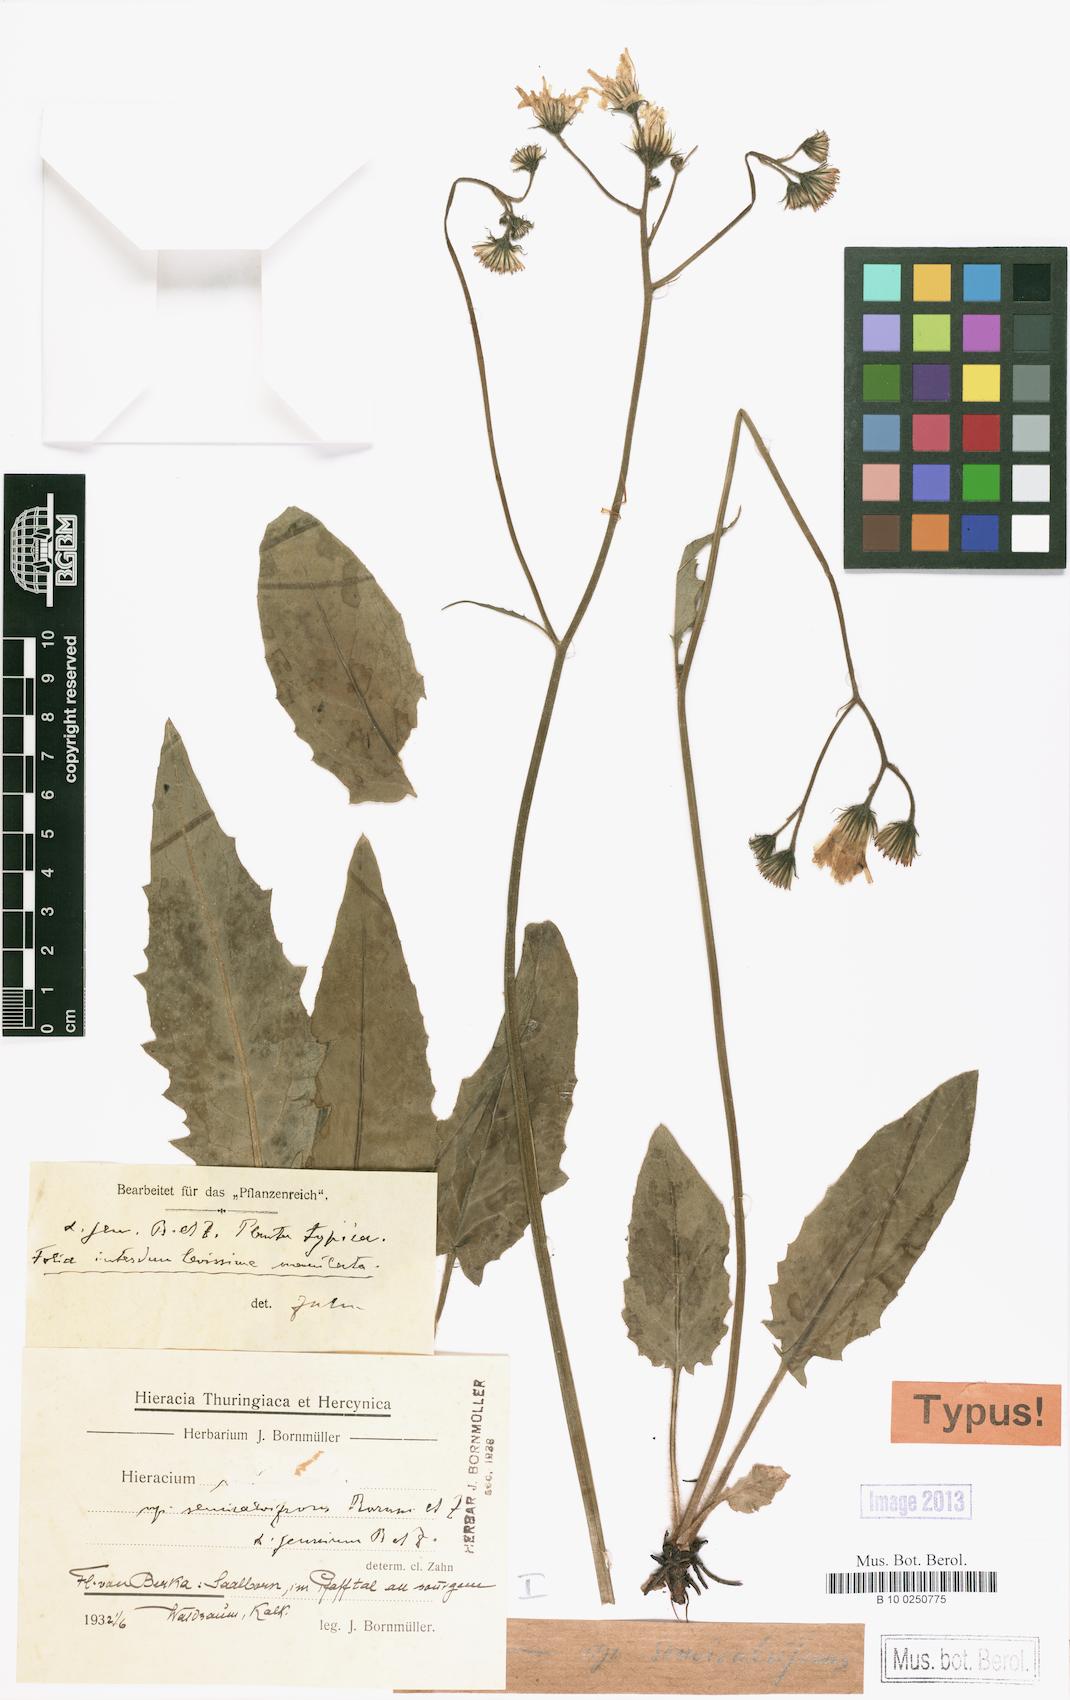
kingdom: Plantae
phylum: Tracheophyta
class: Magnoliopsida
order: Asterales
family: Asteraceae
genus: Hieracium
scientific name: Hieracium murorum
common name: Wall hawkweed
